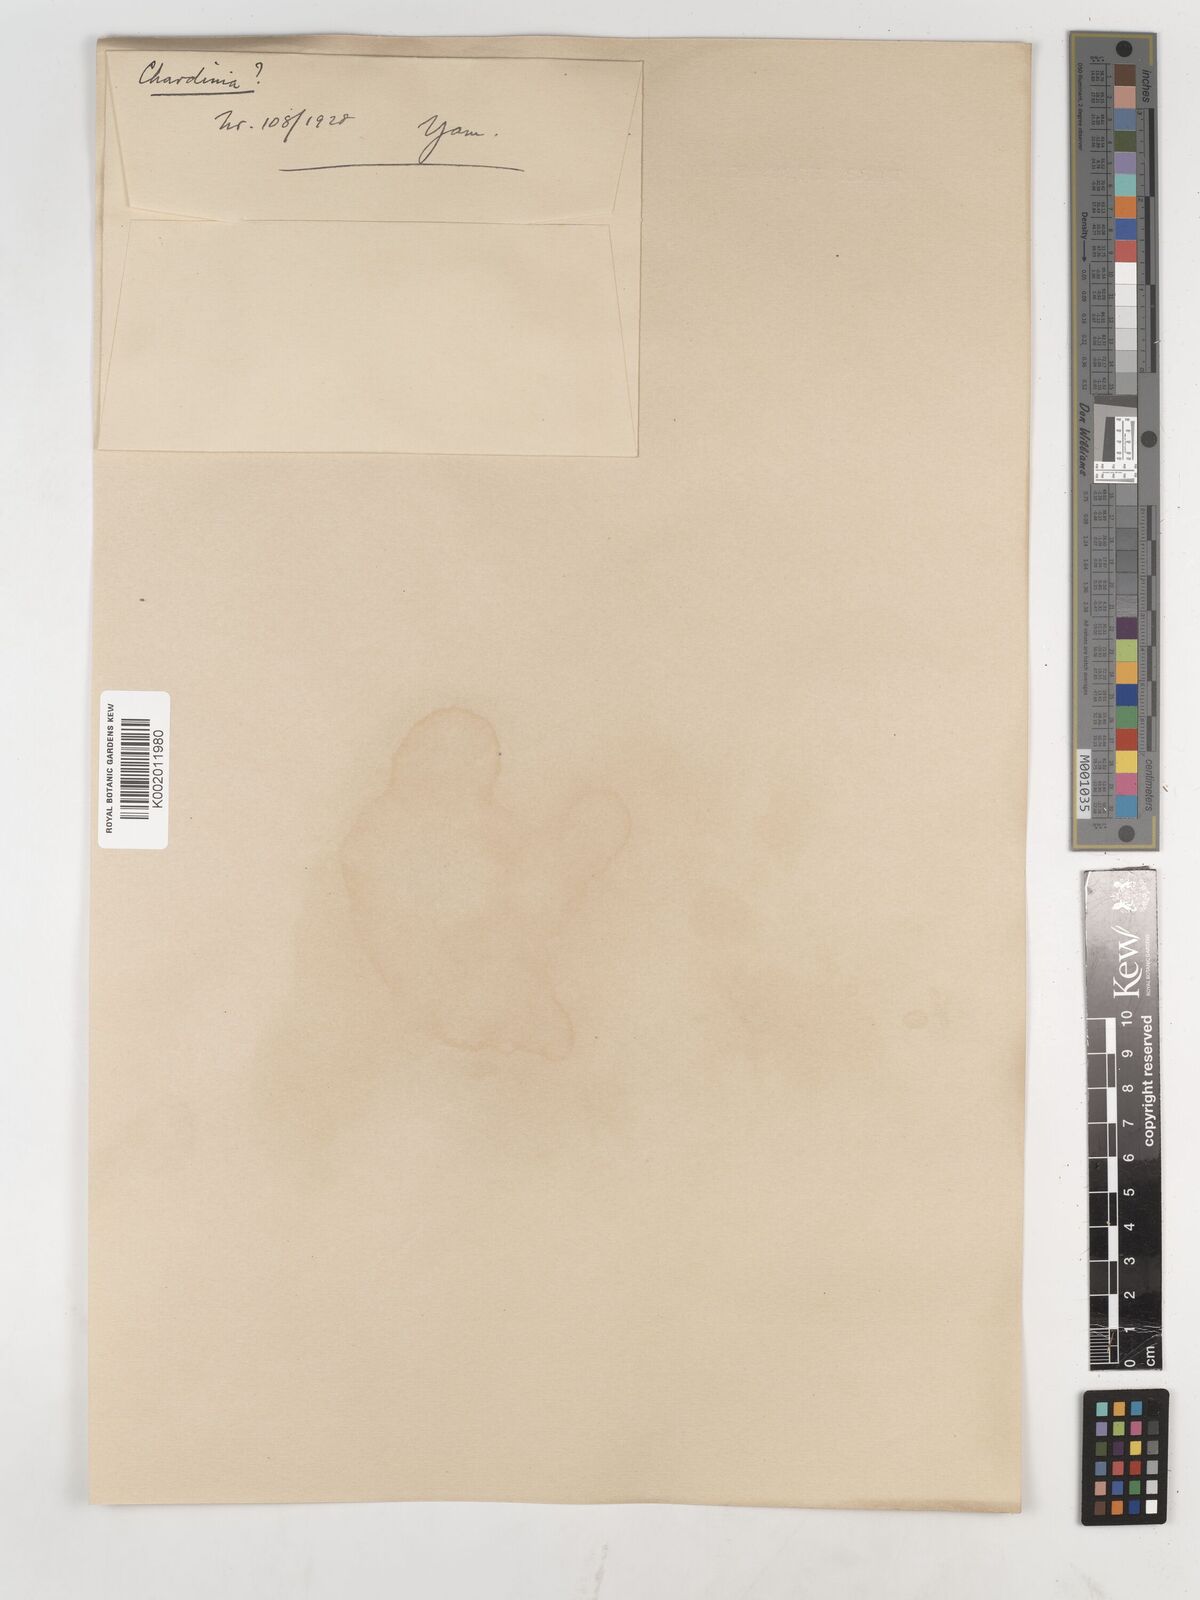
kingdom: Plantae
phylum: Tracheophyta
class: Magnoliopsida
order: Asterales
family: Asteraceae
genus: Chardinia
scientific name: Chardinia orientalis
